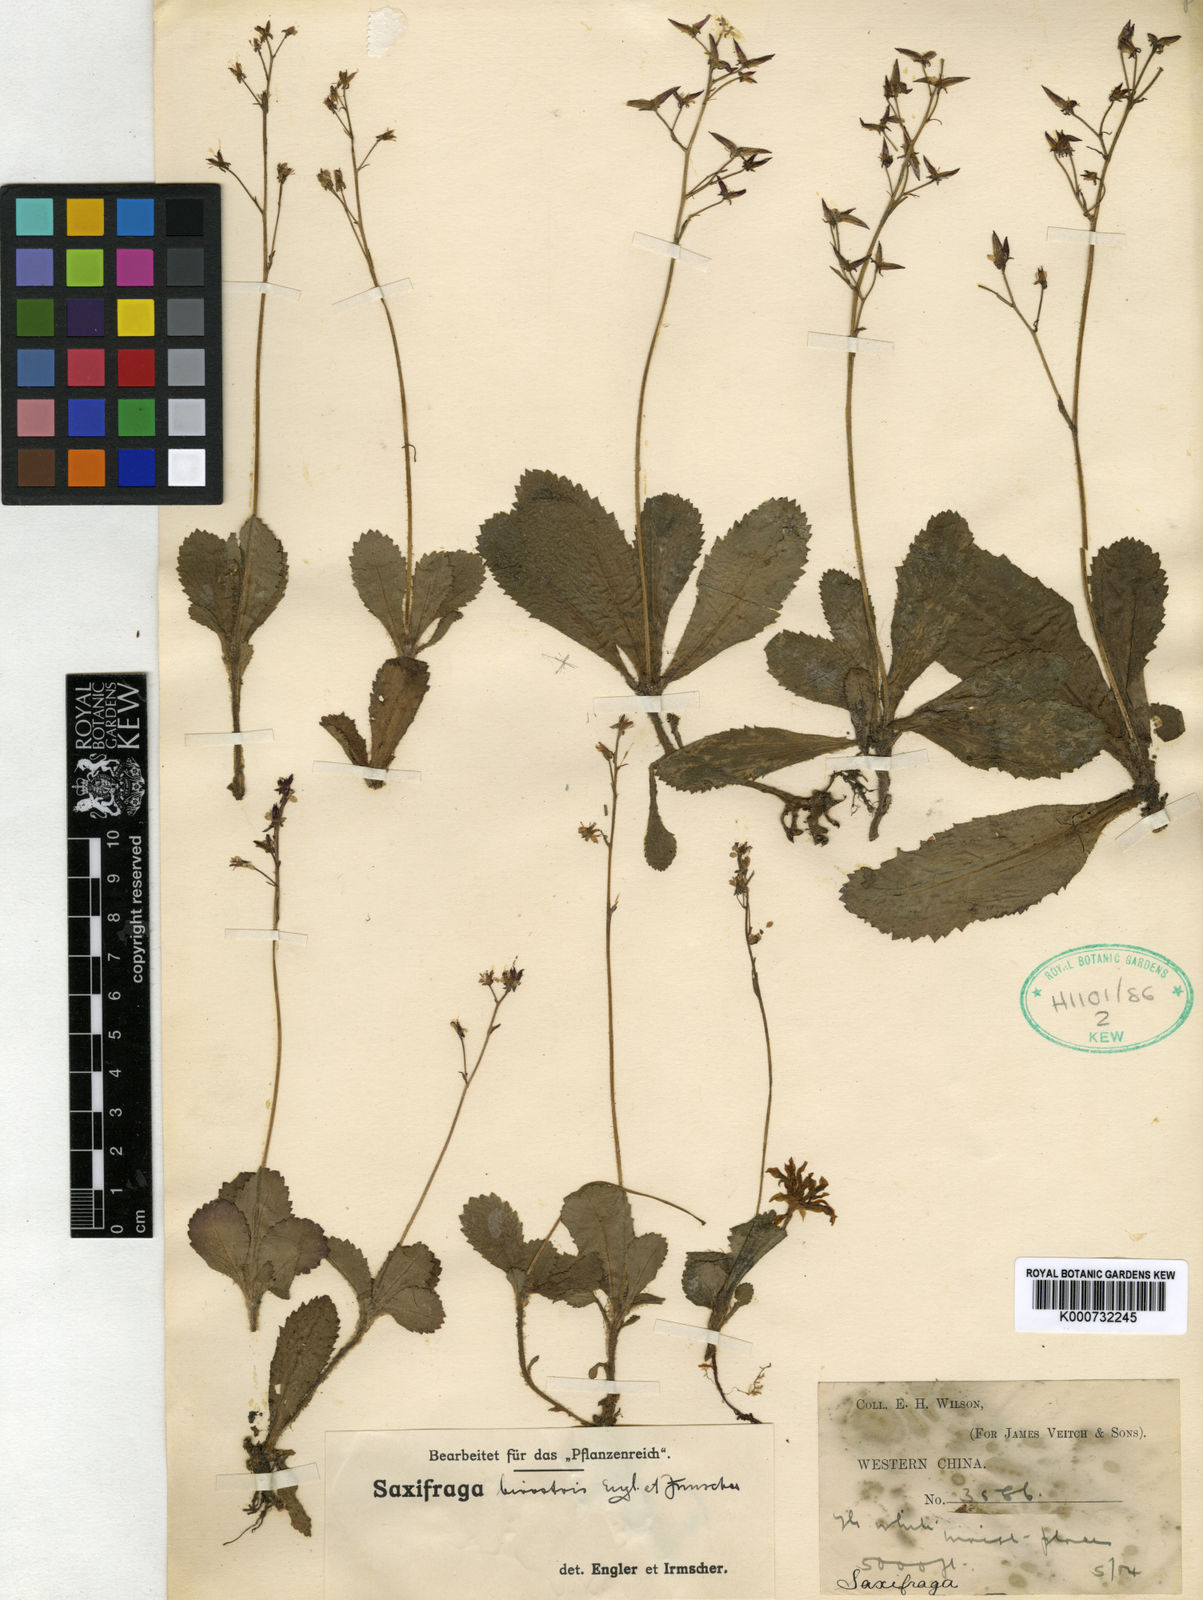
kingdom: Plantae
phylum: Tracheophyta
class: Magnoliopsida
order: Saxifragales
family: Saxifragaceae
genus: Micranthes
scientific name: Micranthes davidii
